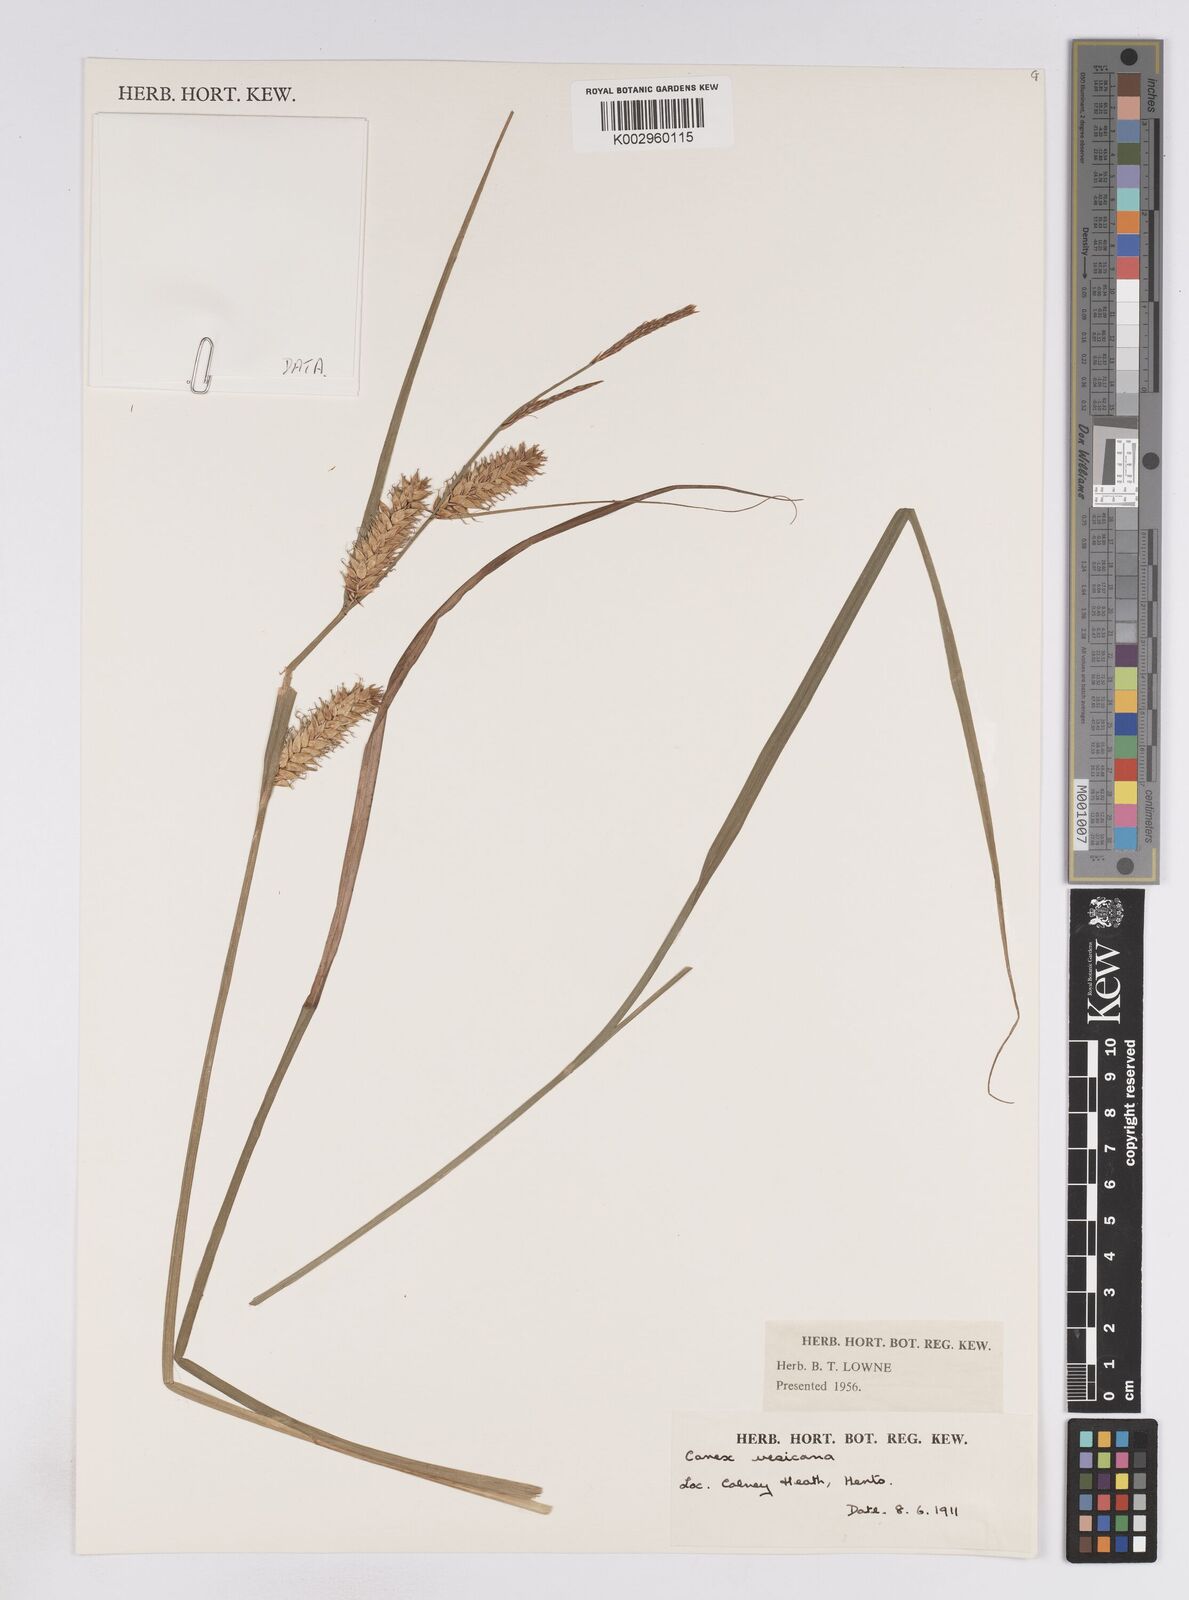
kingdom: Plantae
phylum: Tracheophyta
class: Liliopsida
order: Poales
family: Cyperaceae
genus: Carex
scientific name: Carex vesicaria
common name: Bladder-sedge
